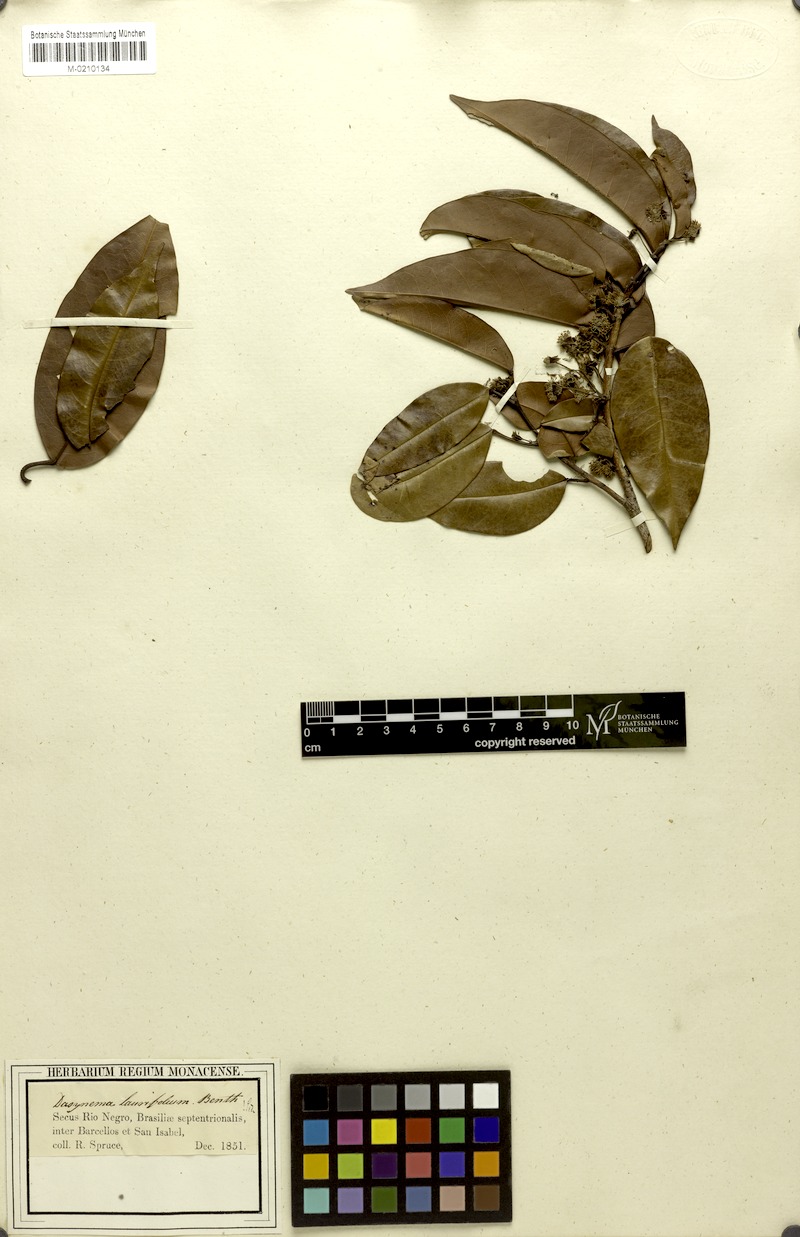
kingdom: Plantae
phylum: Tracheophyta
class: Magnoliopsida
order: Oxalidales
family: Elaeocarpaceae
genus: Sloanea
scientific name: Sloanea laurifolia
